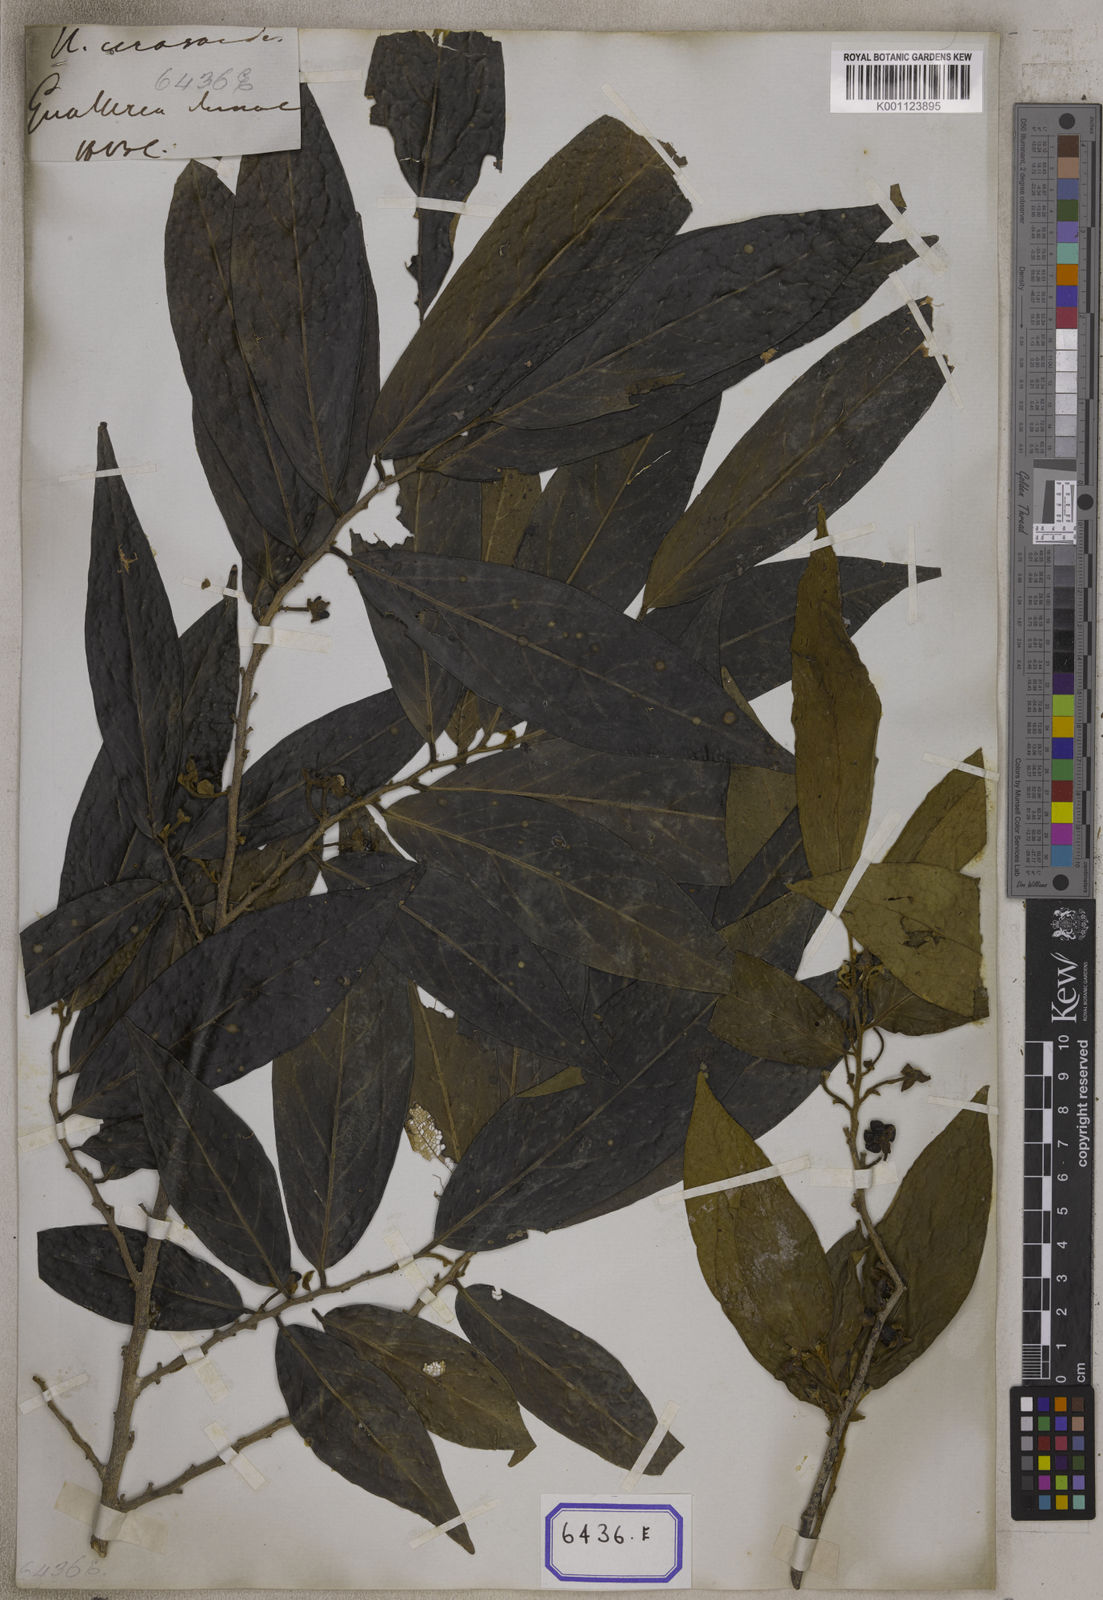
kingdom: Plantae
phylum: Tracheophyta
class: Magnoliopsida
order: Magnoliales
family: Annonaceae
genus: Hubera
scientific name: Hubera cerasoides
